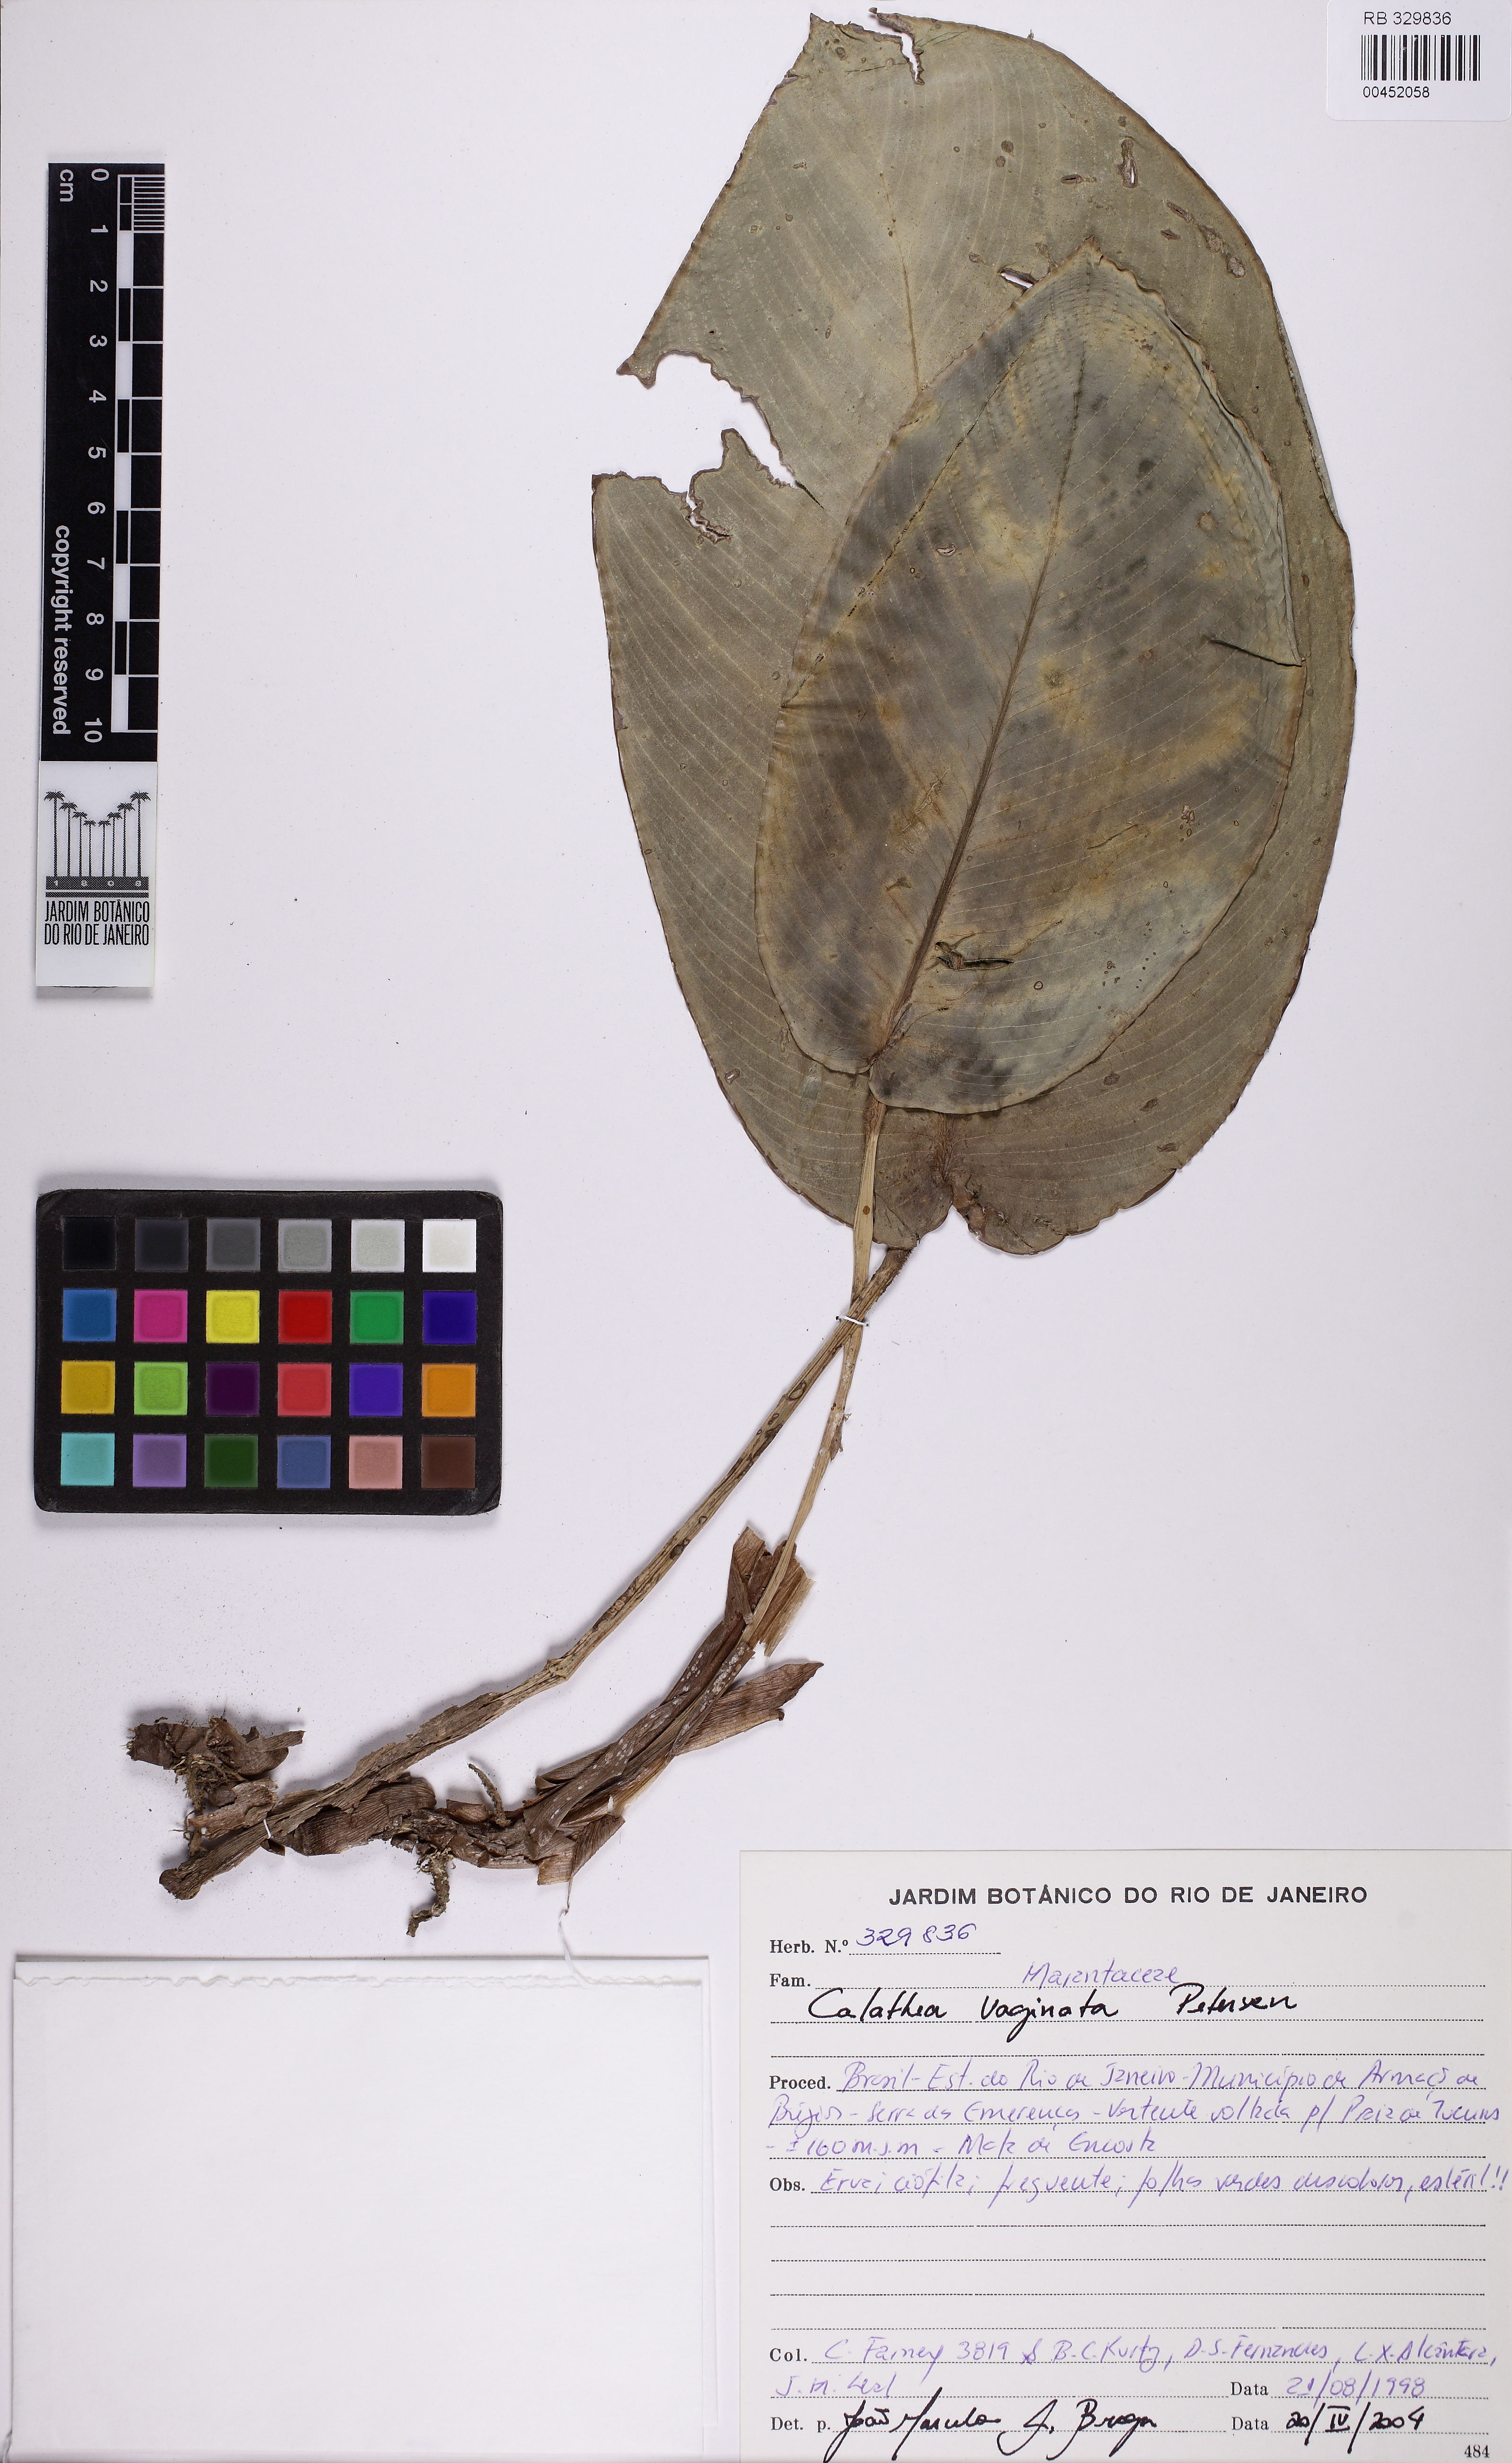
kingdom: Plantae
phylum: Tracheophyta
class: Liliopsida
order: Zingiberales
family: Marantaceae
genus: Goeppertia
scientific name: Goeppertia vaginata
